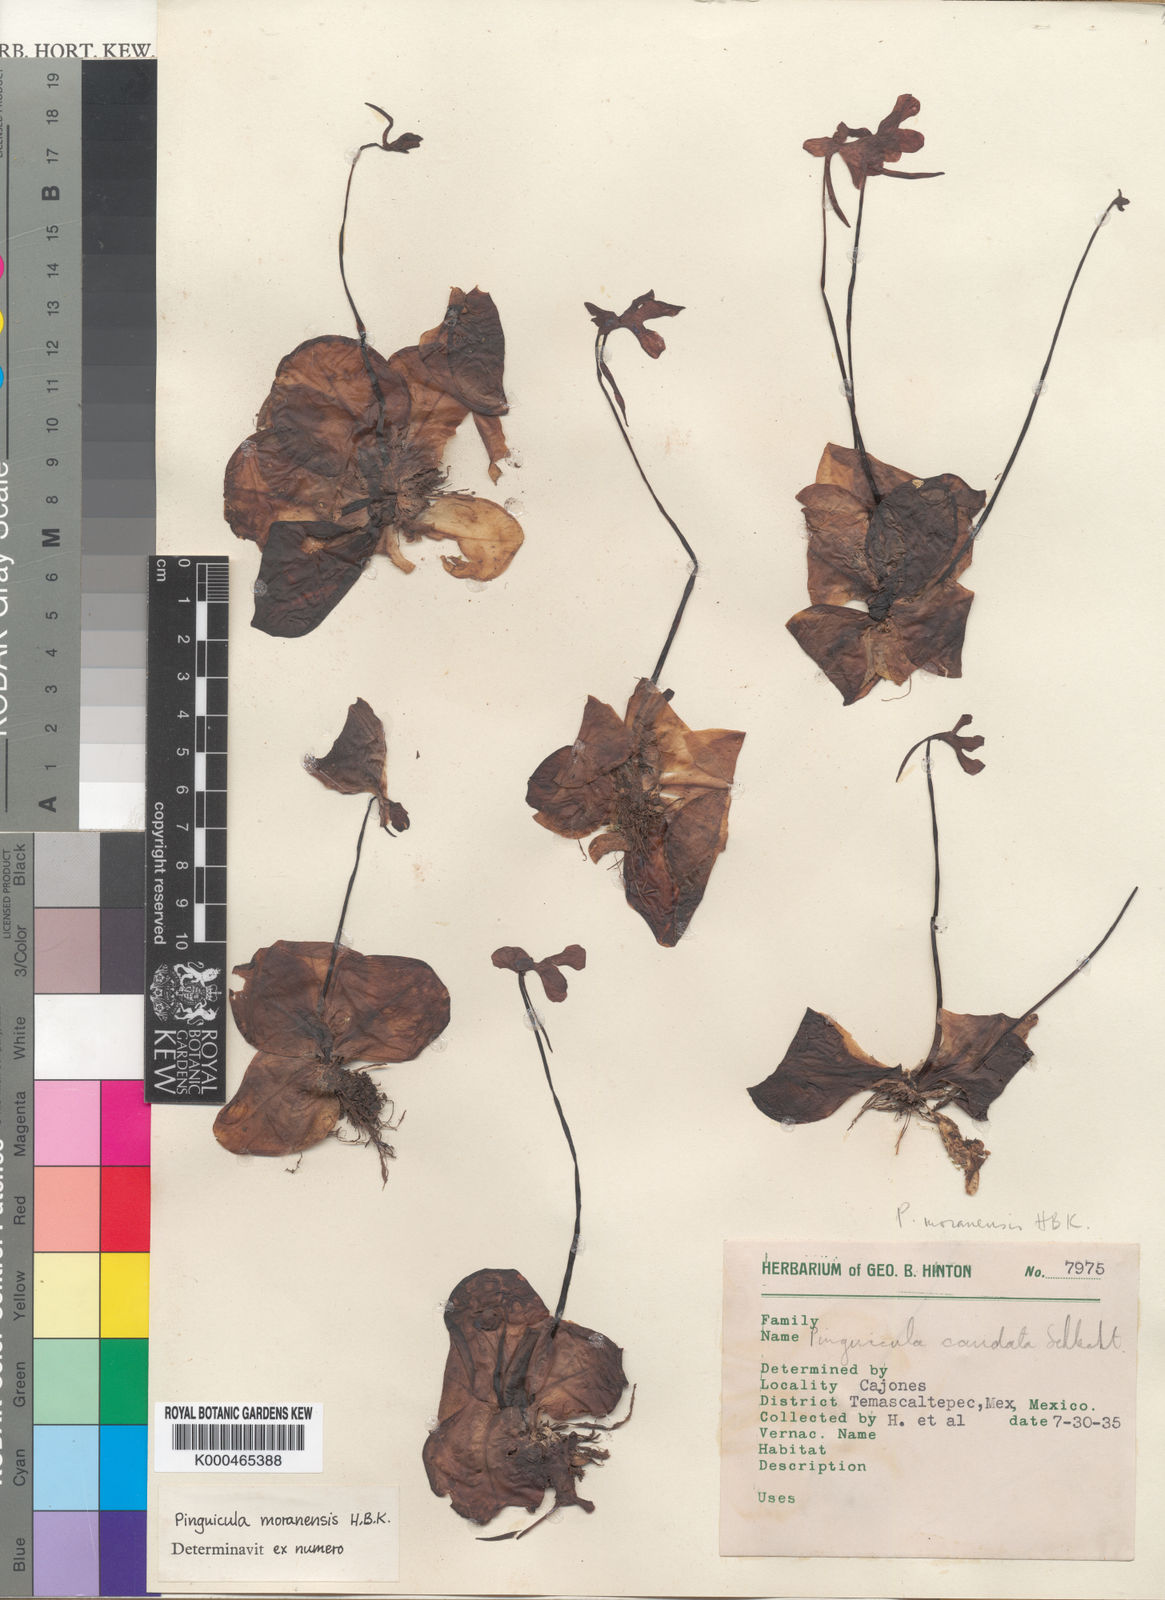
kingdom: Plantae
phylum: Tracheophyta
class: Magnoliopsida
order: Lamiales
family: Lentibulariaceae
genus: Pinguicula
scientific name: Pinguicula caudata
